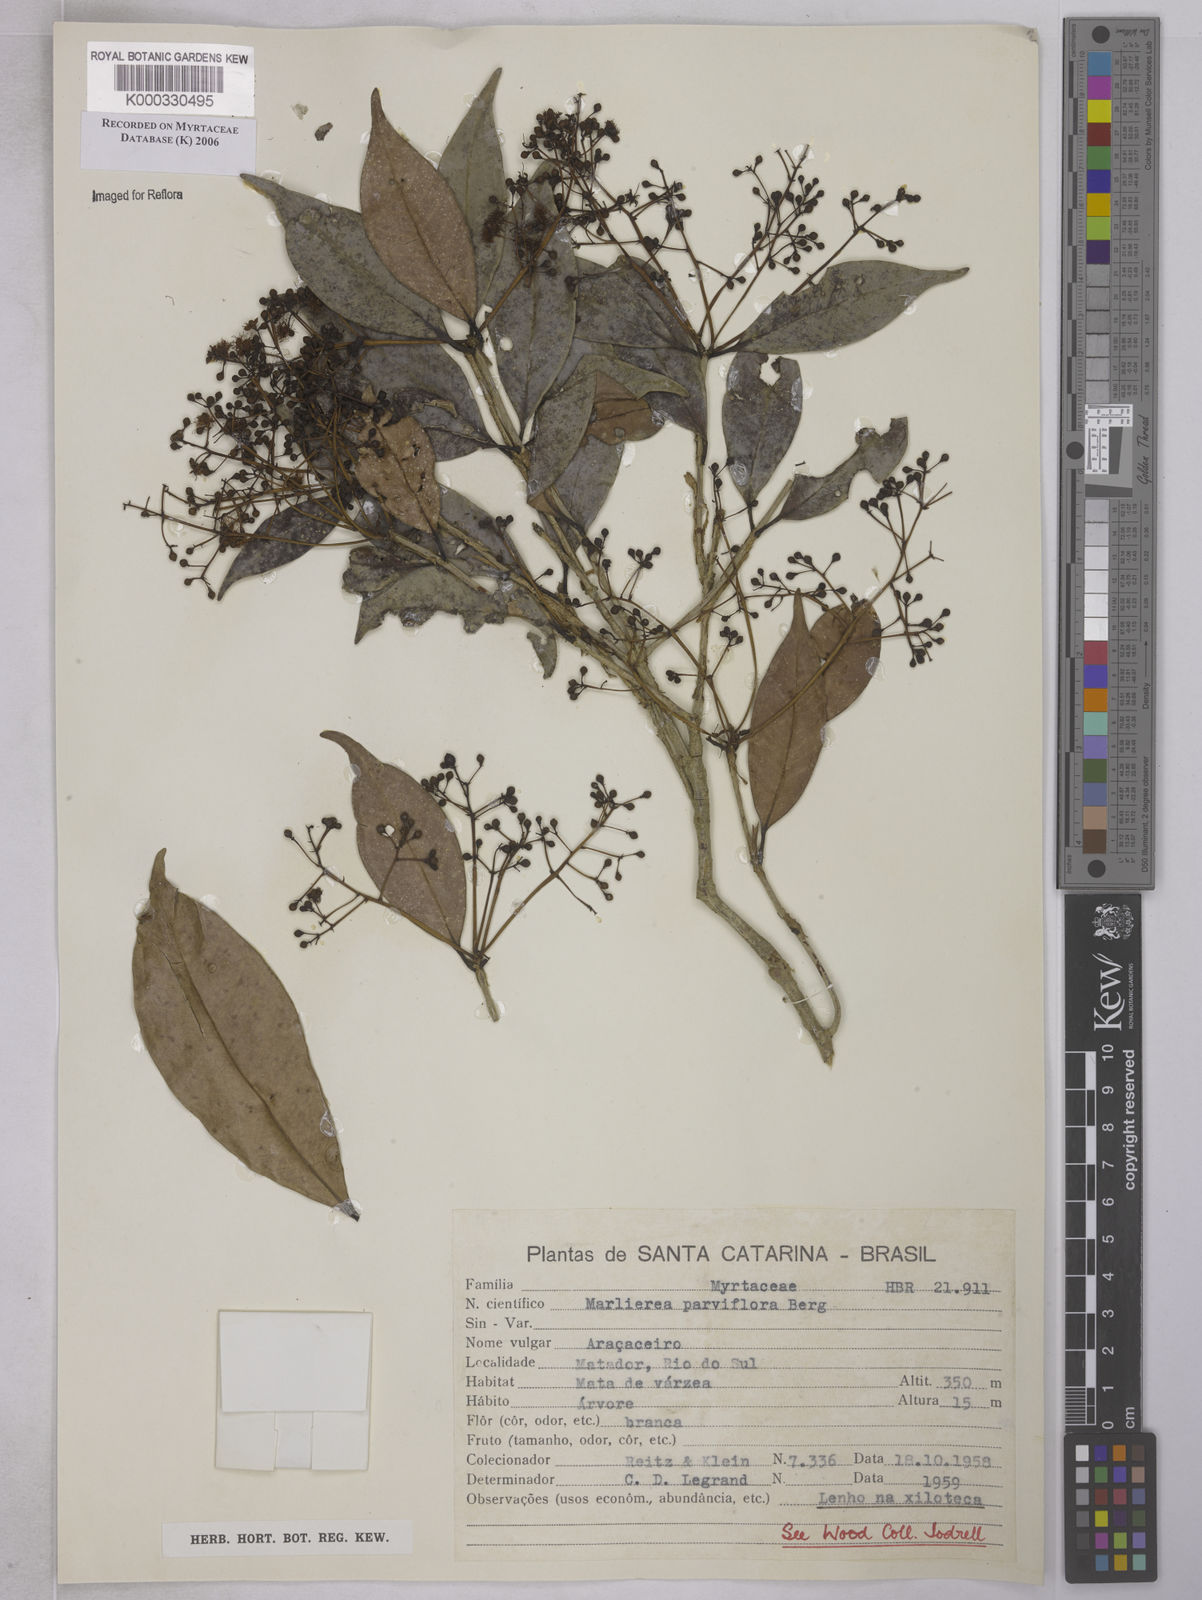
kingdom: Plantae
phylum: Tracheophyta
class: Magnoliopsida
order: Myrtales
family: Myrtaceae
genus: Marlierea
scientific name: Marlierea
